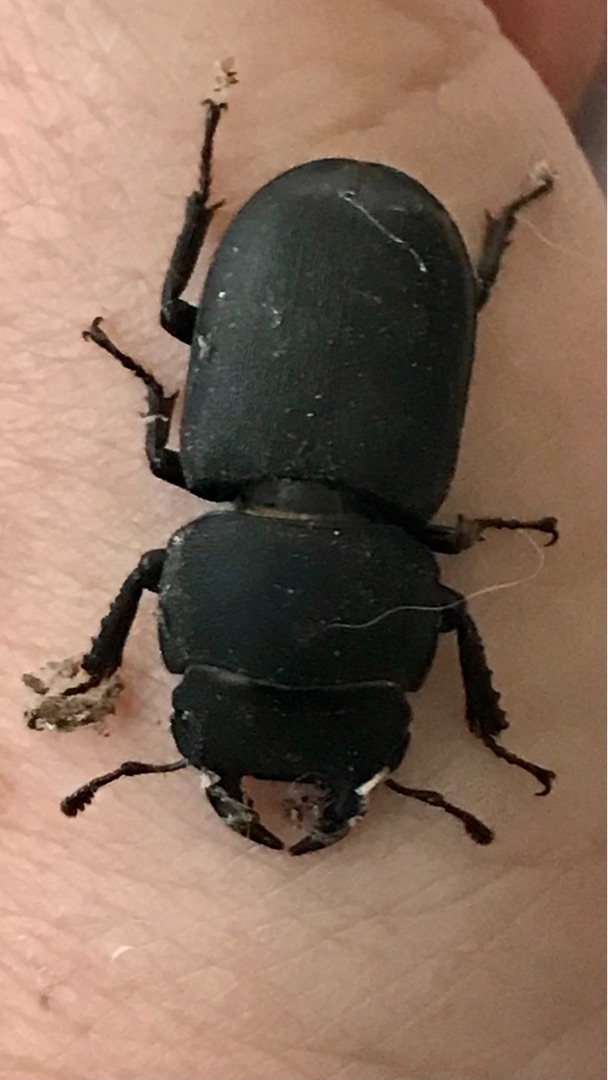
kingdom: Animalia
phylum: Arthropoda
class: Insecta
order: Coleoptera
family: Lucanidae
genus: Dorcus
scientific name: Dorcus parallelipipedus
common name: Bøghjort
